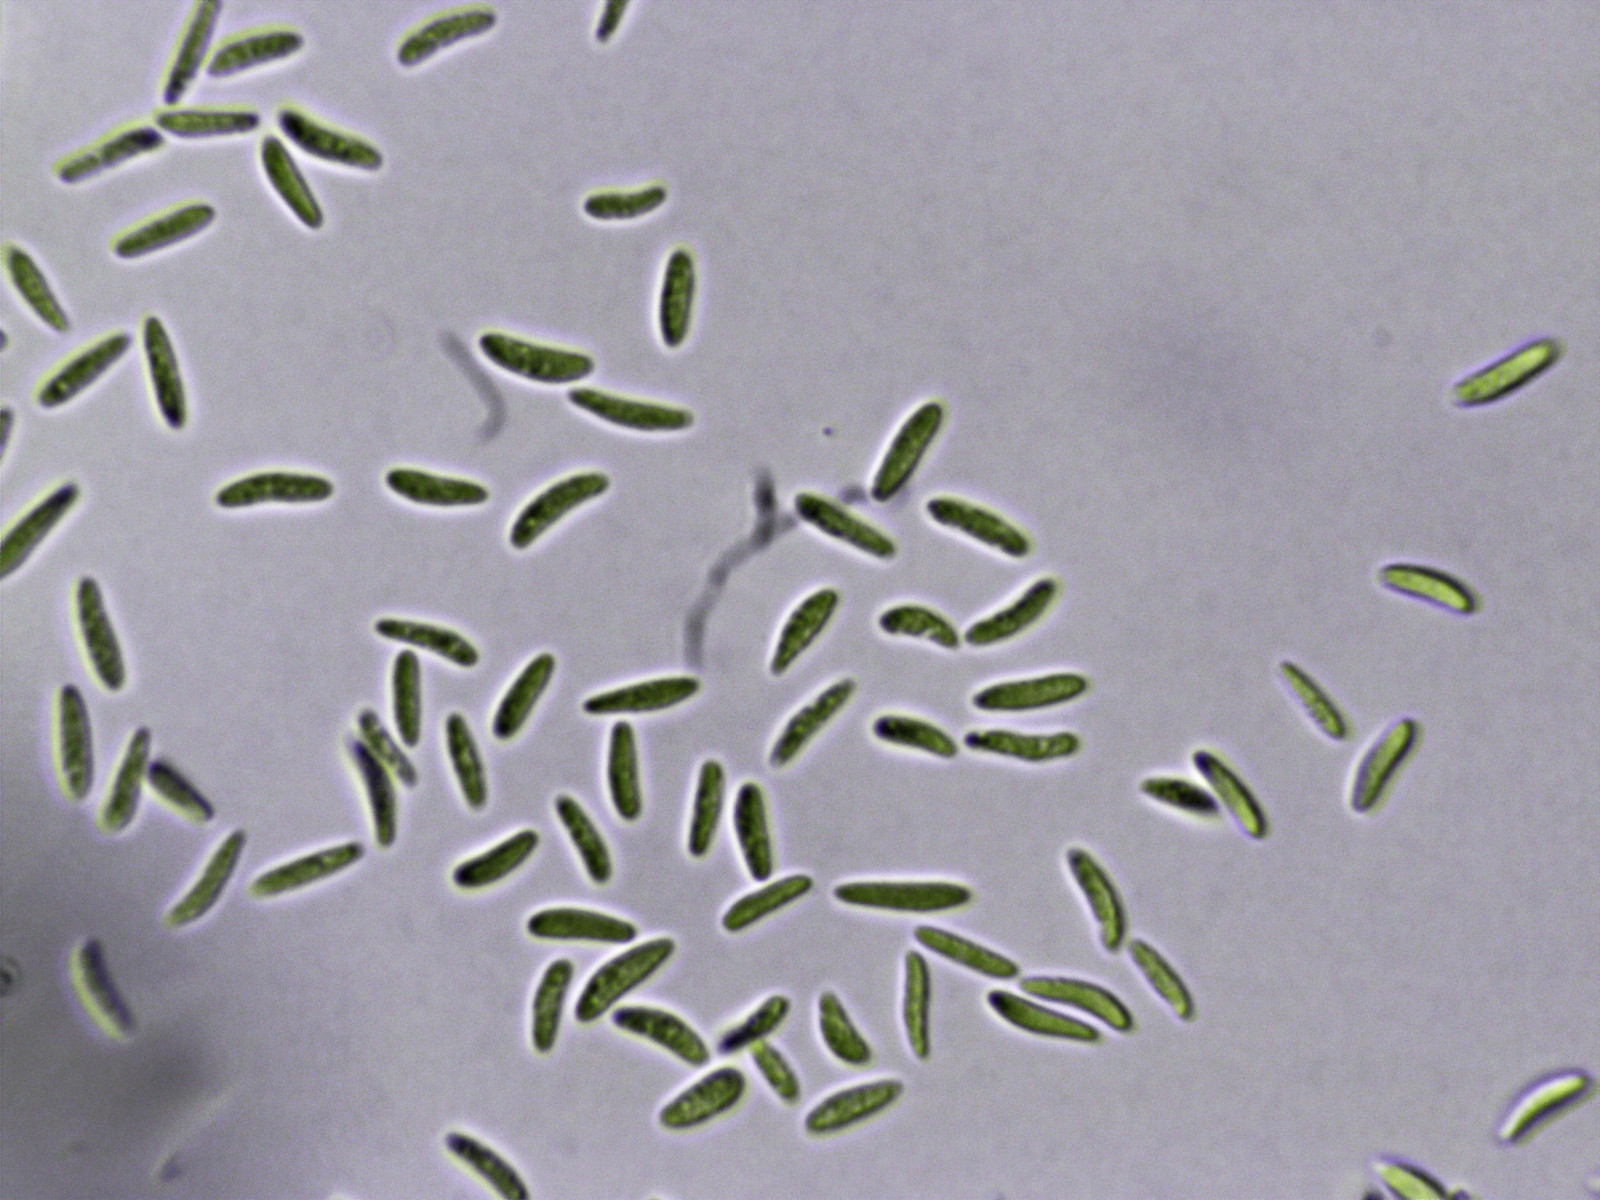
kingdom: Fungi
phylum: Ascomycota
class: Leotiomycetes
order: Helotiales
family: Mollisiaceae
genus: Mollisia
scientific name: Mollisia
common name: gråskive
